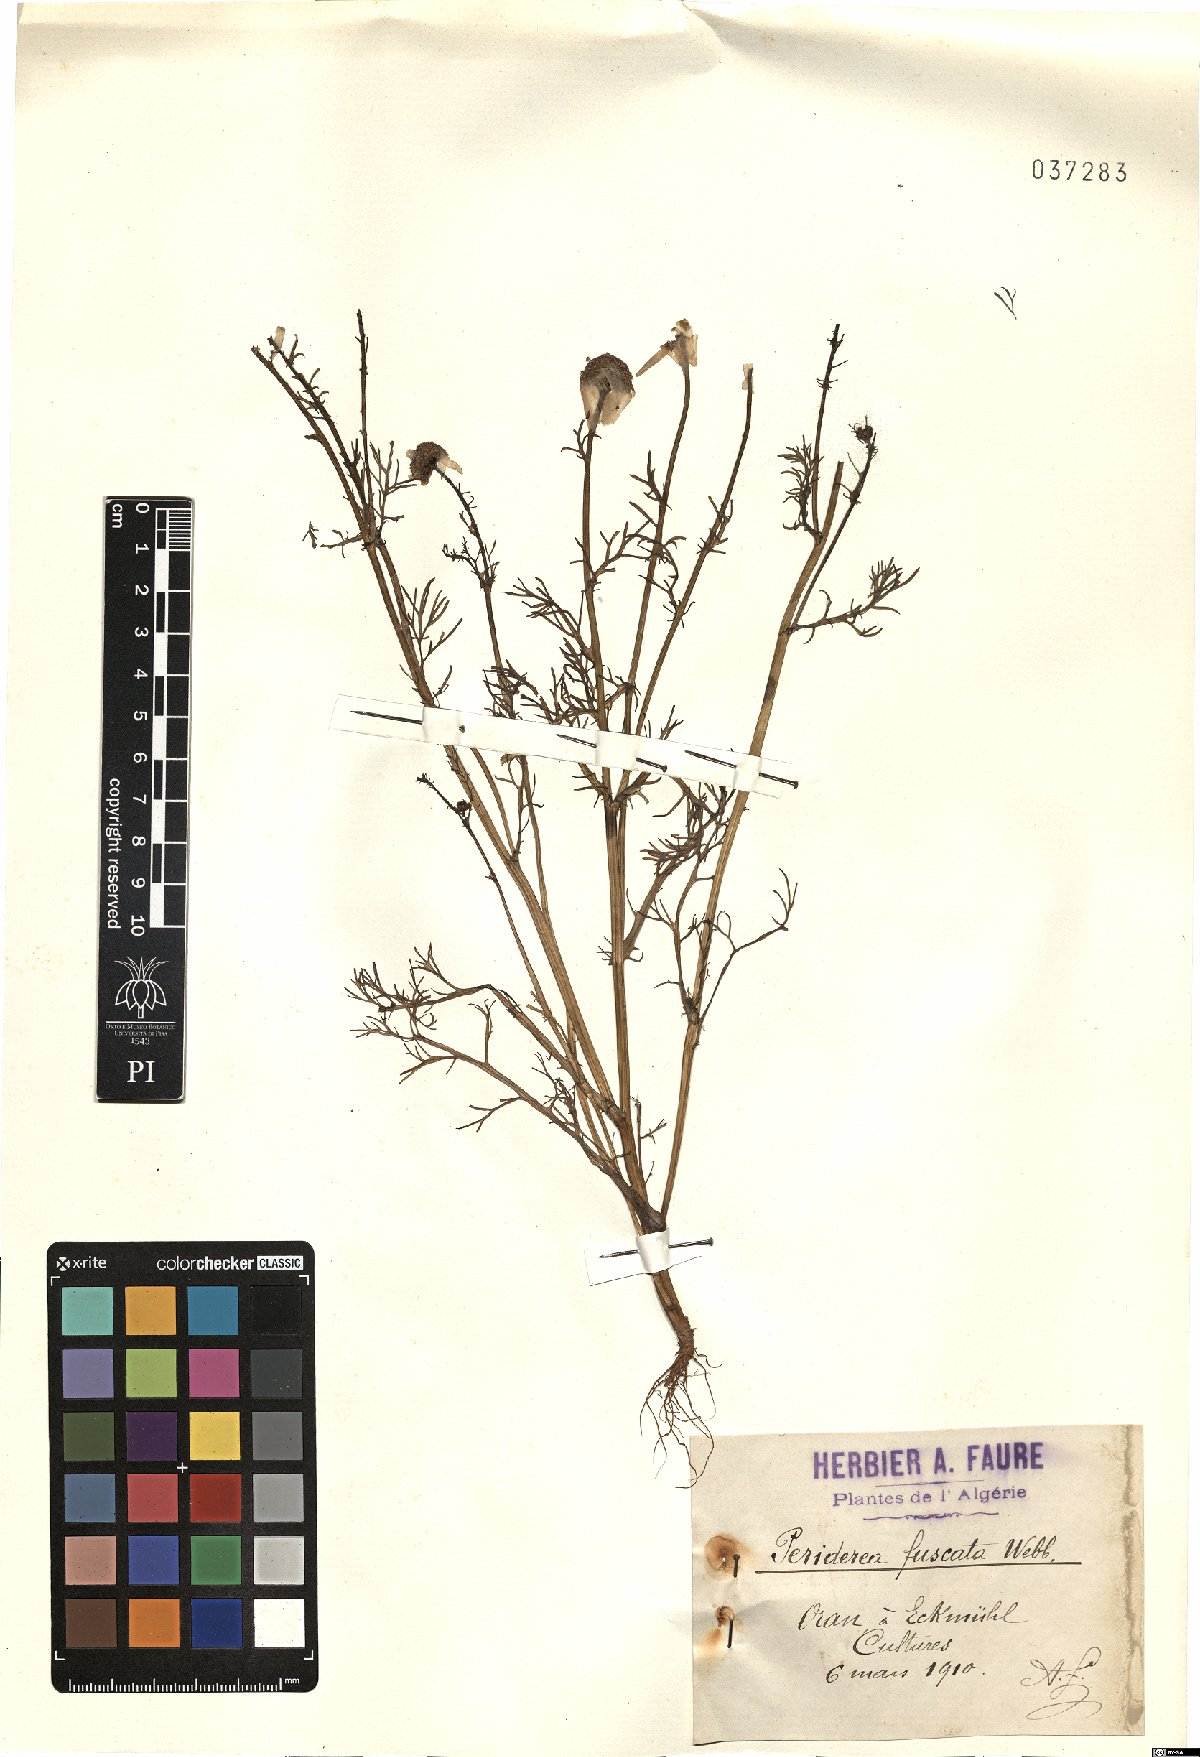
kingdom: Plantae
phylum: Tracheophyta
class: Magnoliopsida
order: Asterales
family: Asteraceae
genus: Chamaemelum
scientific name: Chamaemelum fuscatum
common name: Chamomile
